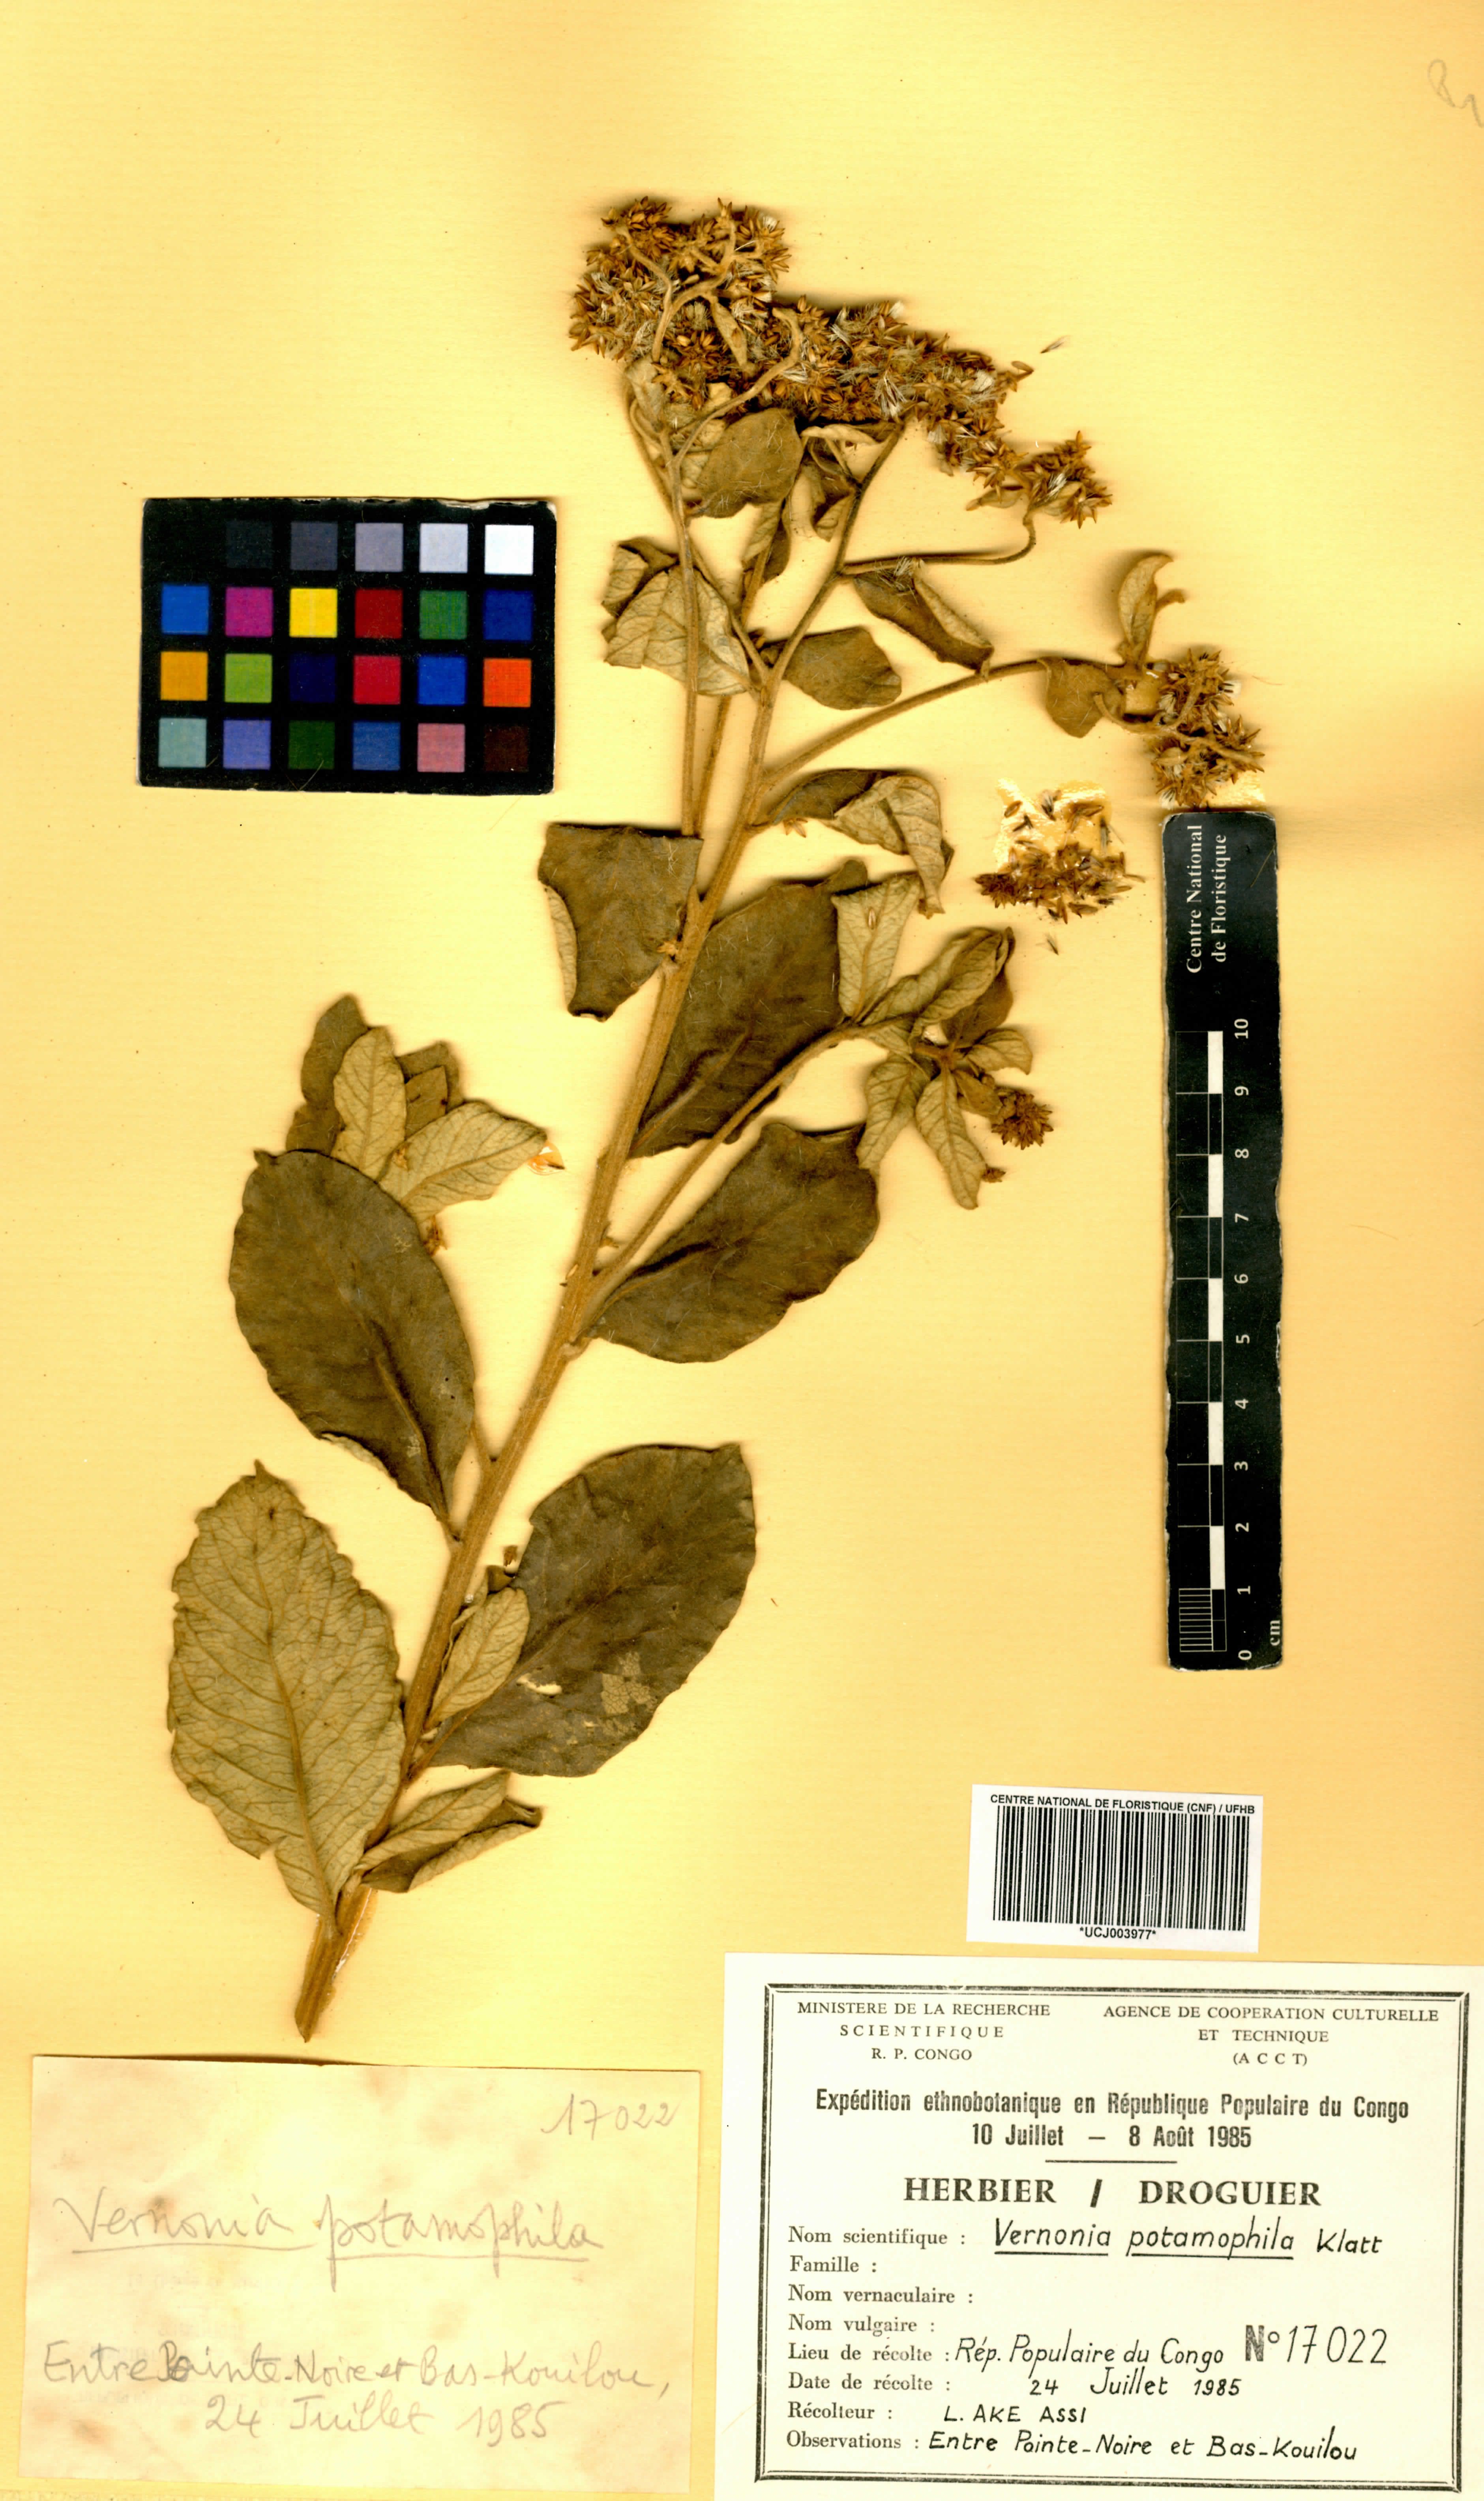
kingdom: Plantae
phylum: Tracheophyta
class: Magnoliopsida
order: Asterales
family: Asteraceae
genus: Vernonia
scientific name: Vernonia potamophila
